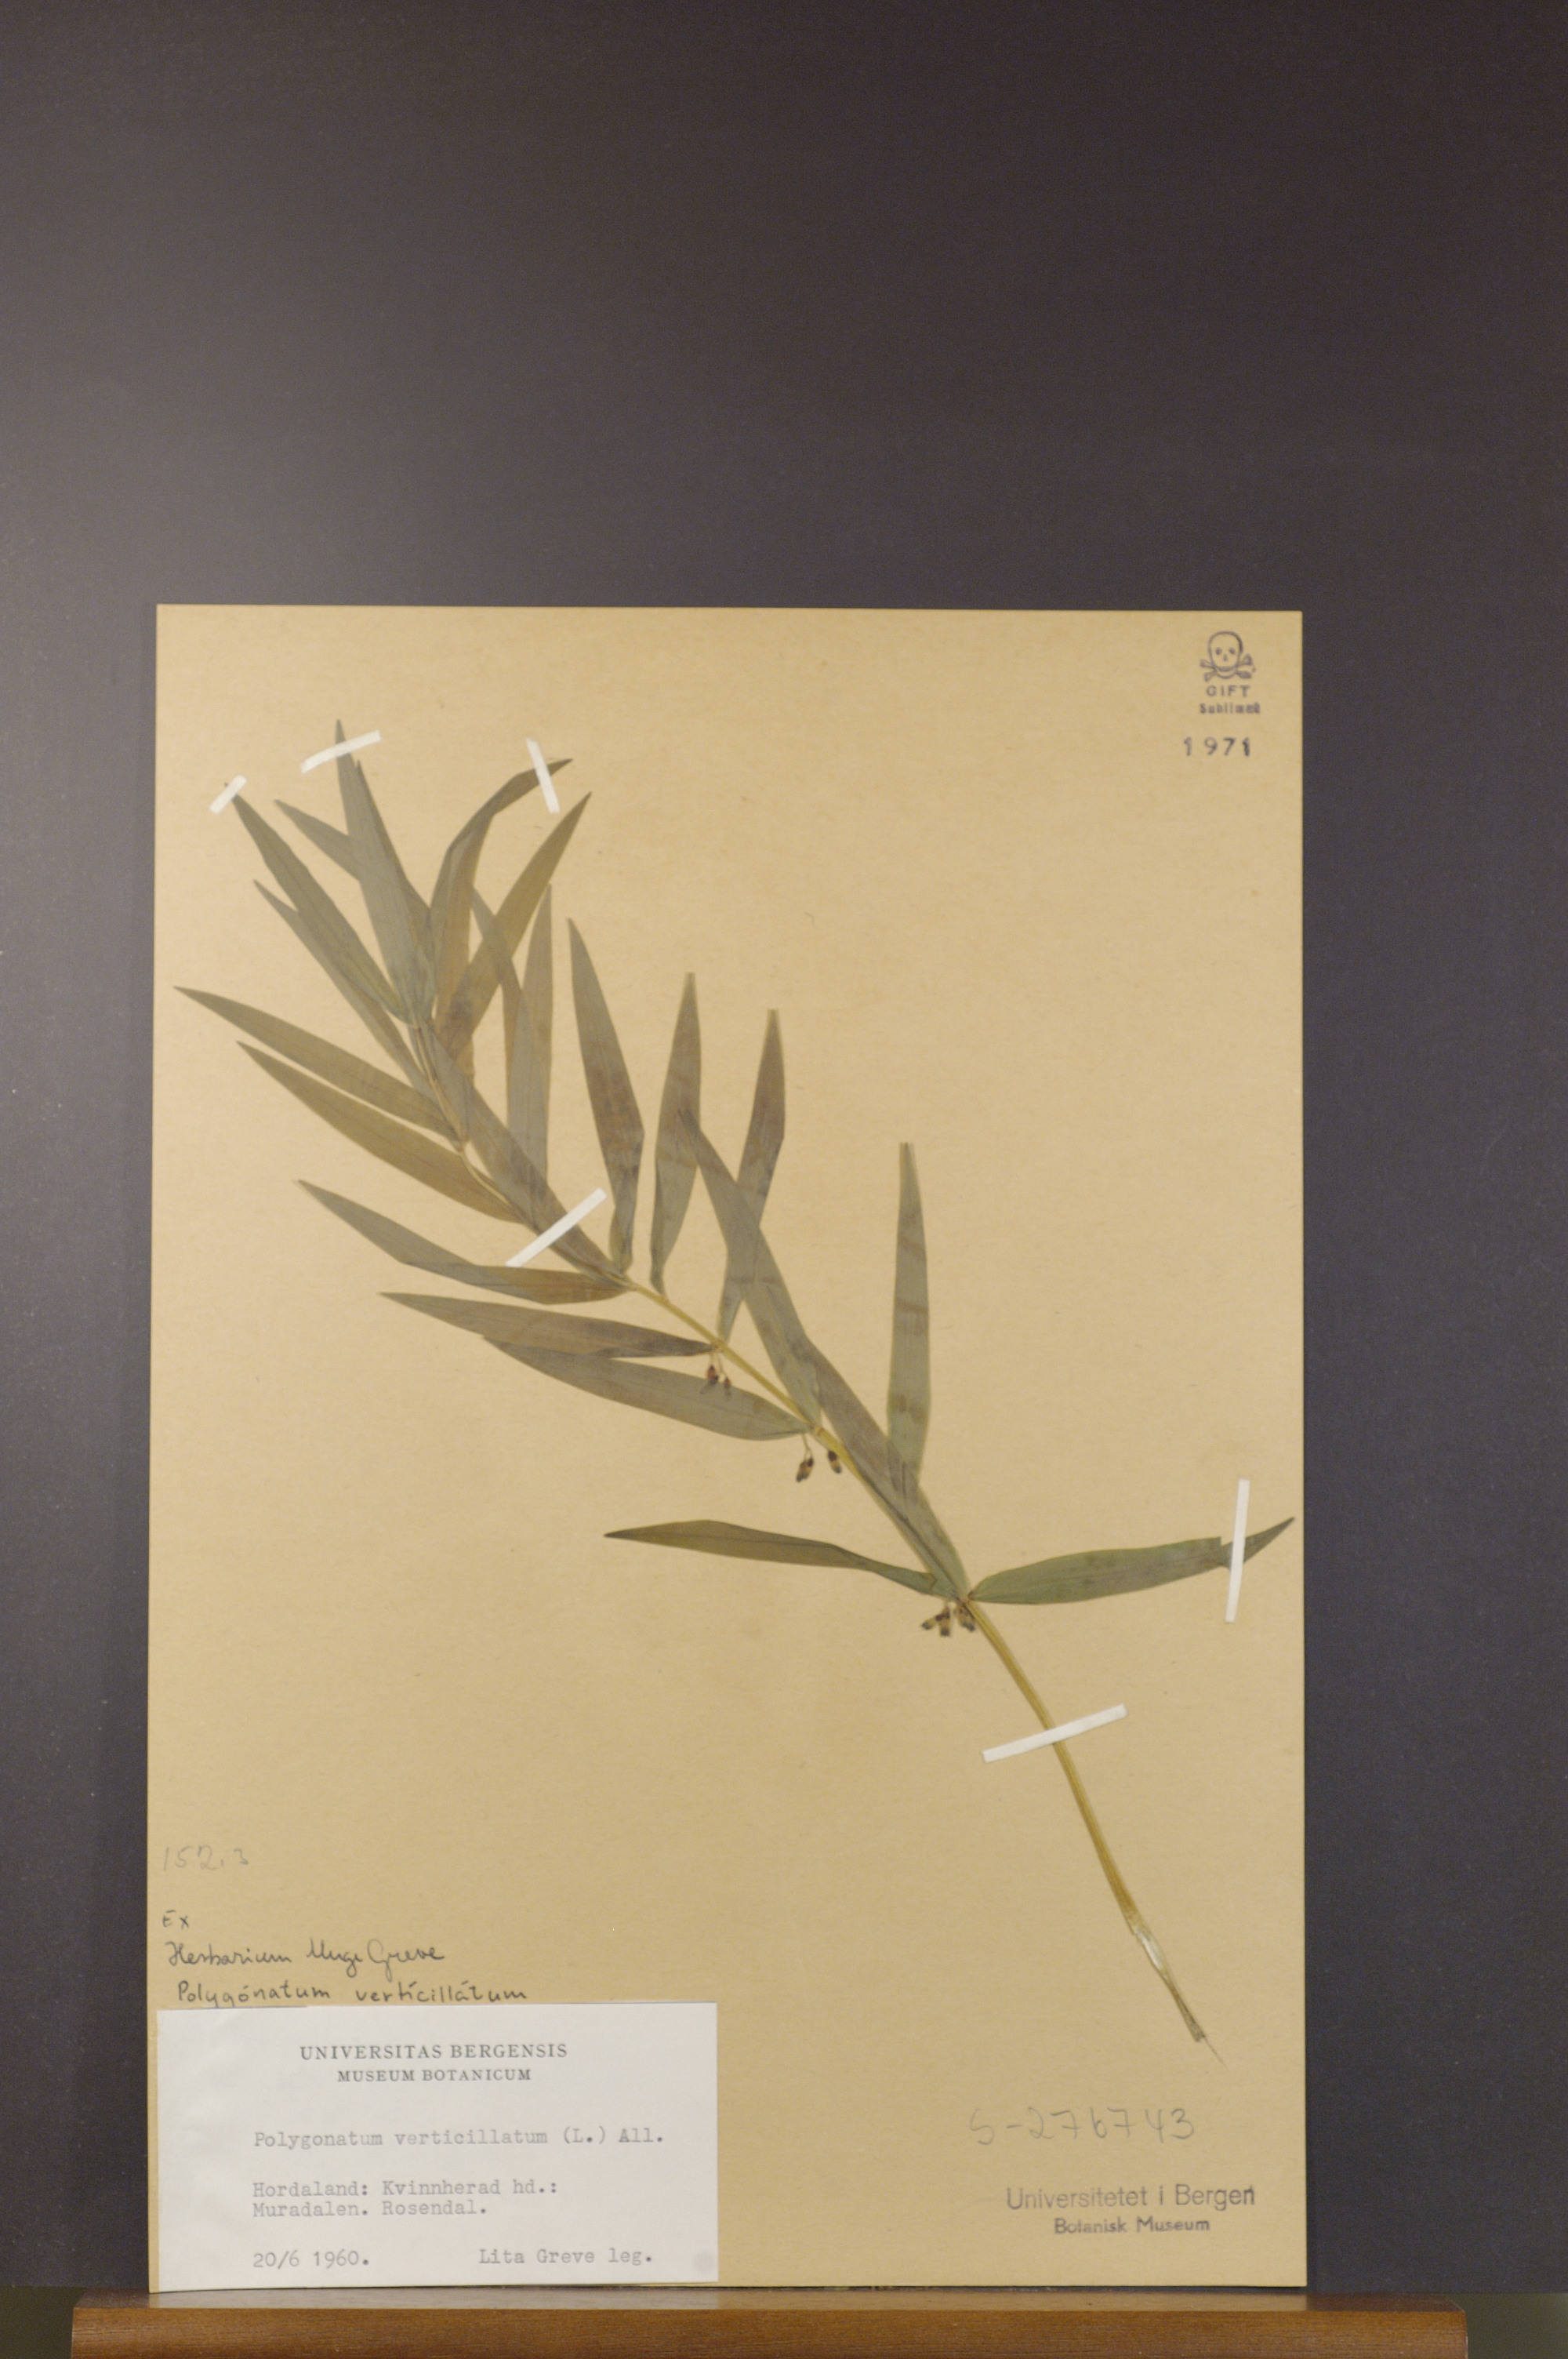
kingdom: Plantae
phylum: Tracheophyta
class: Liliopsida
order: Asparagales
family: Asparagaceae
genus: Polygonatum
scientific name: Polygonatum verticillatum
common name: Whorled solomon's-seal
